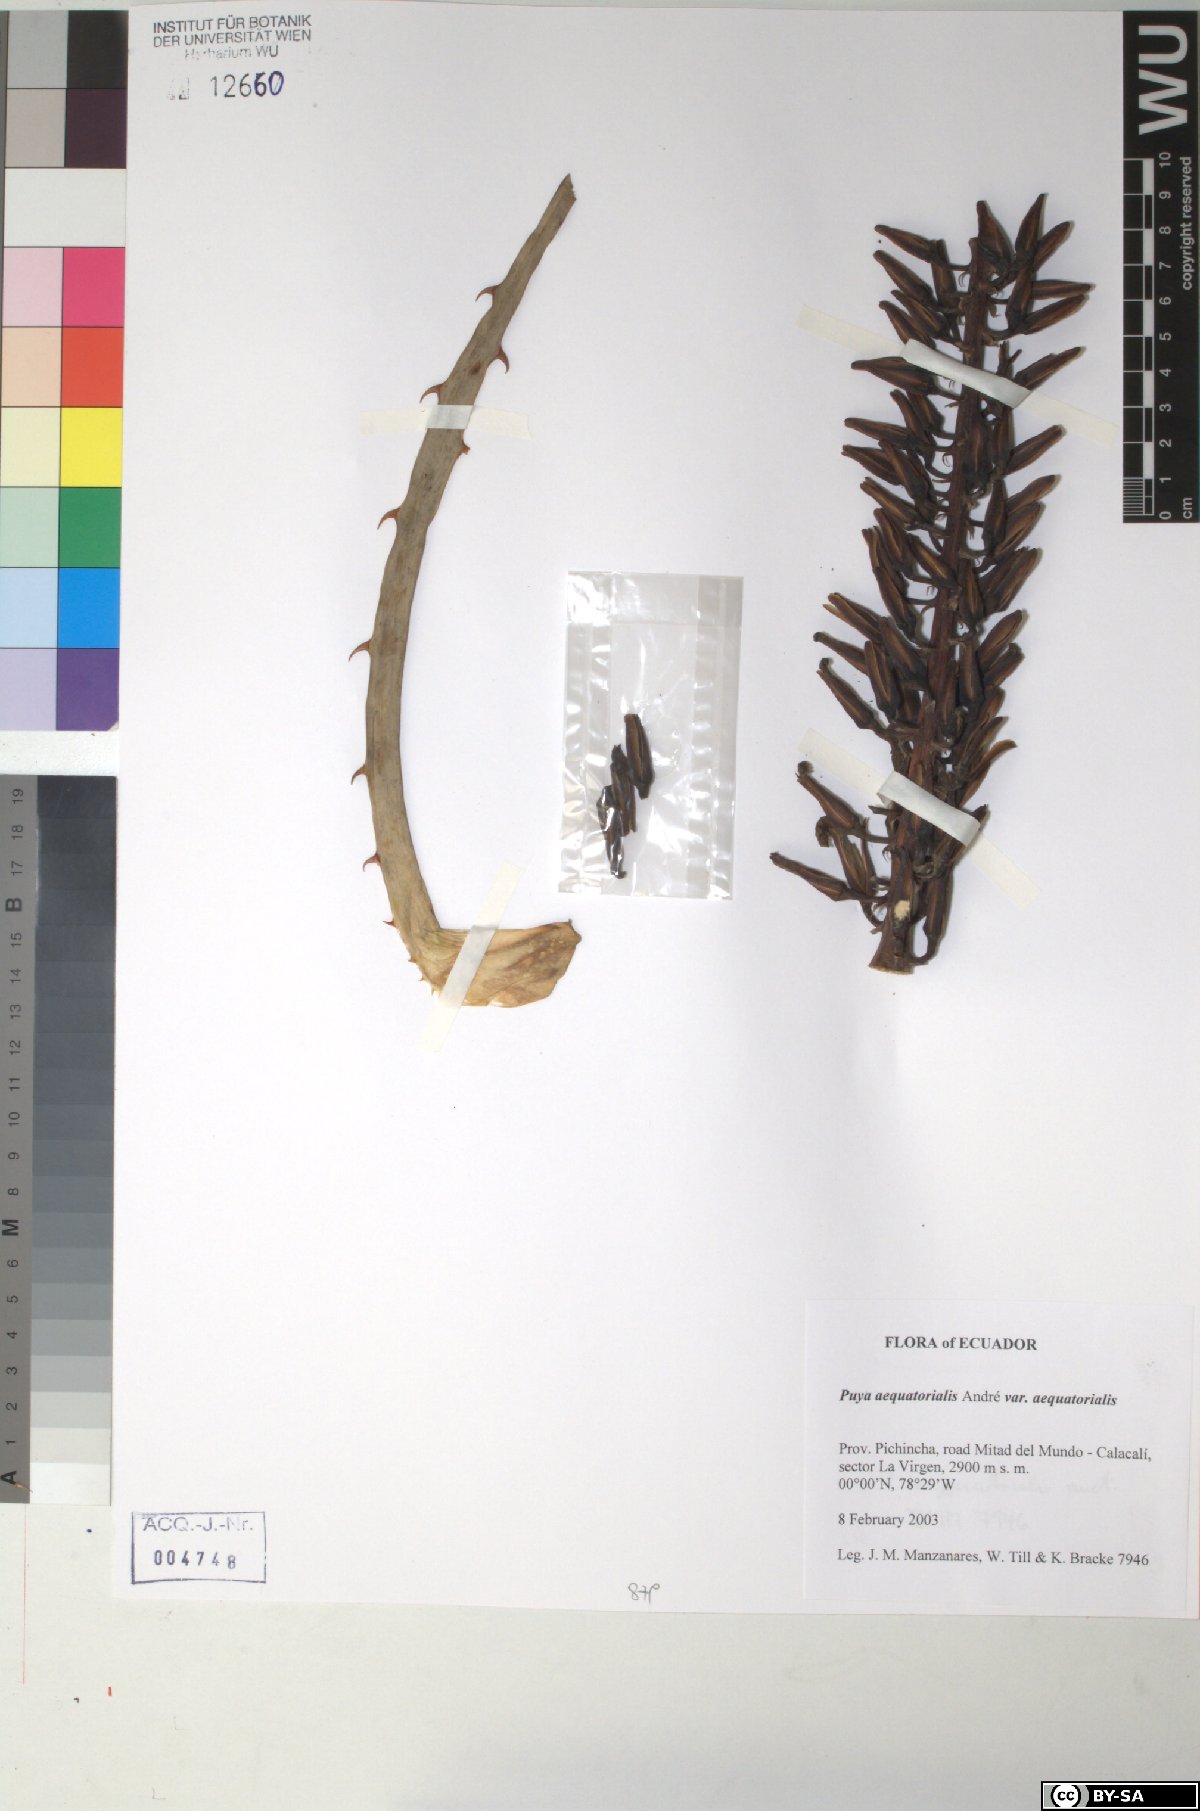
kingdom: Plantae
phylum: Tracheophyta
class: Liliopsida
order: Poales
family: Bromeliaceae
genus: Puya
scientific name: Puya aequatorialis
